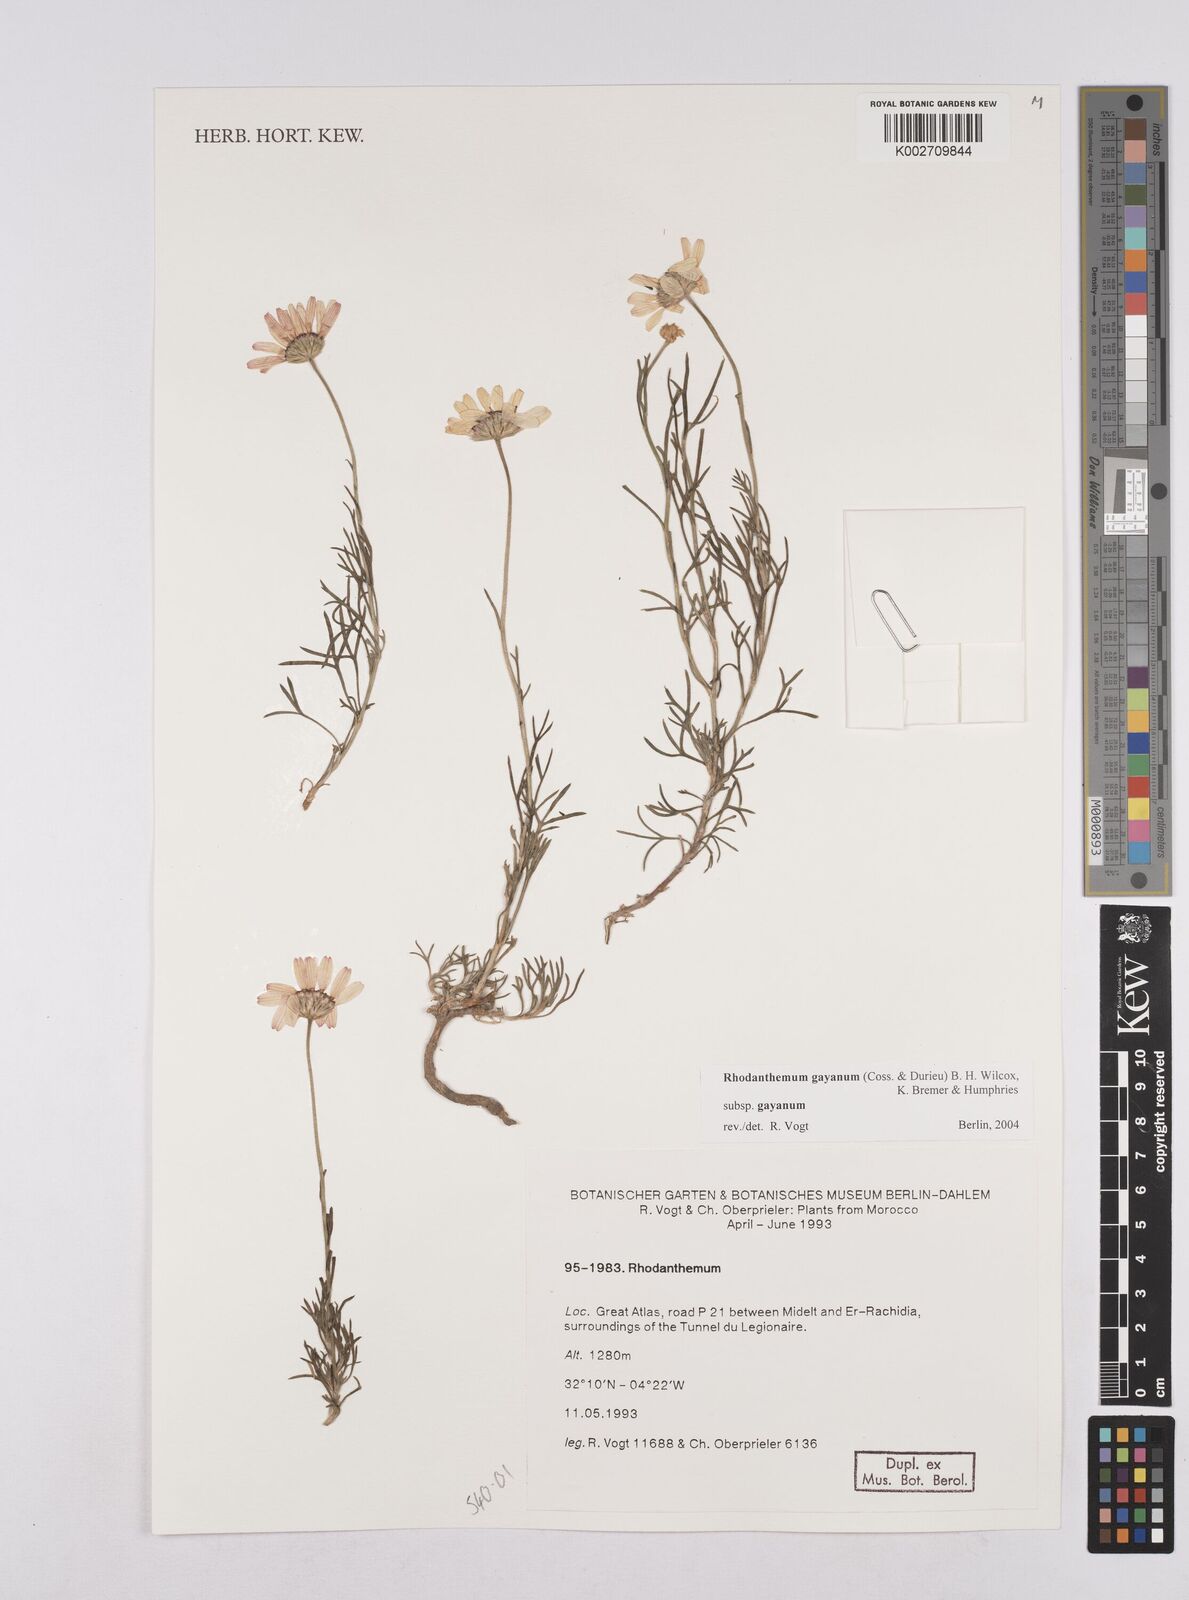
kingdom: Plantae
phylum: Tracheophyta
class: Magnoliopsida
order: Asterales
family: Asteraceae
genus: Rhodanthemum
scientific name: Rhodanthemum gayanum
